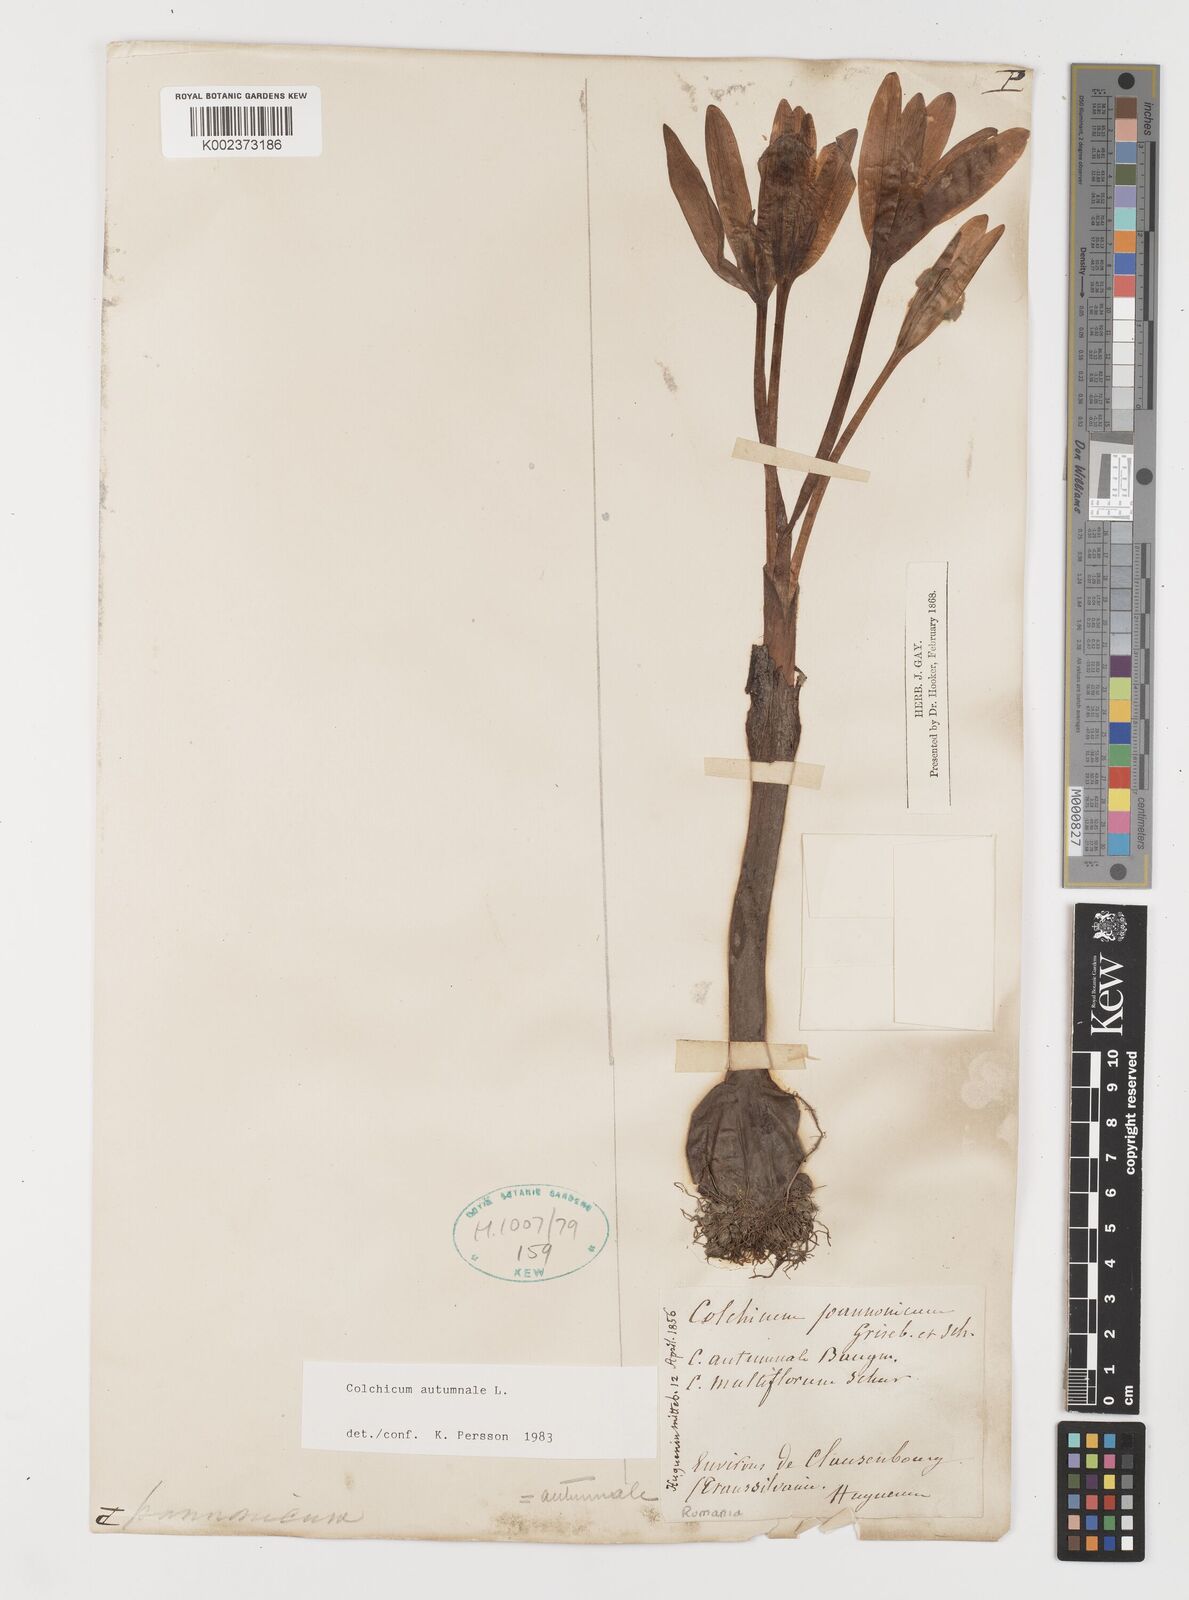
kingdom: Plantae
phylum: Tracheophyta
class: Liliopsida
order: Liliales
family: Colchicaceae
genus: Colchicum
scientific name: Colchicum autumnale
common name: Autumn crocus
